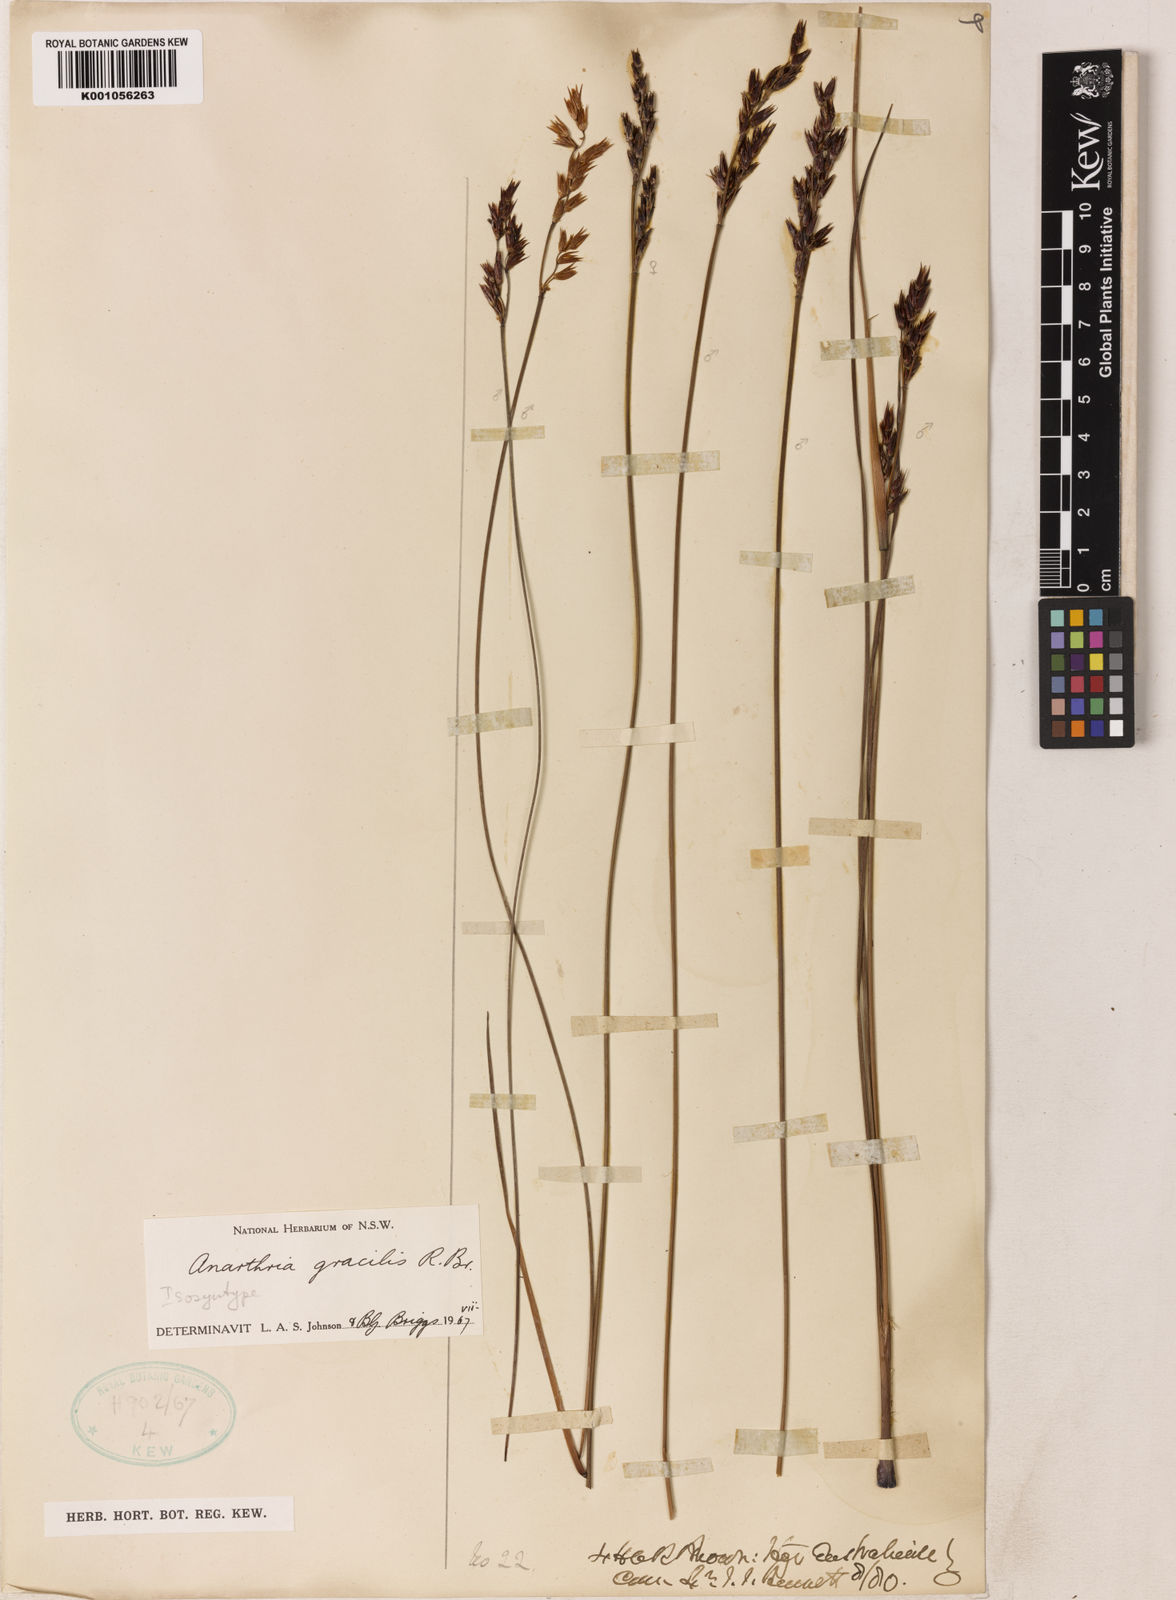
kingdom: Plantae
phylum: Tracheophyta
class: Liliopsida
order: Poales
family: Restionaceae
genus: Anarthria
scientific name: Anarthria gracilis
